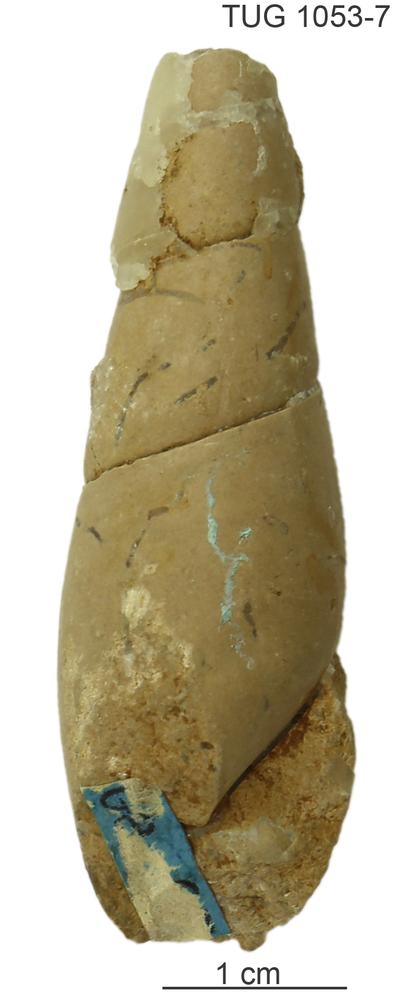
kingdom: Animalia
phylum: Mollusca
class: Gastropoda
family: Subulitidae
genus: Subulites
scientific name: Subulites revalensis
